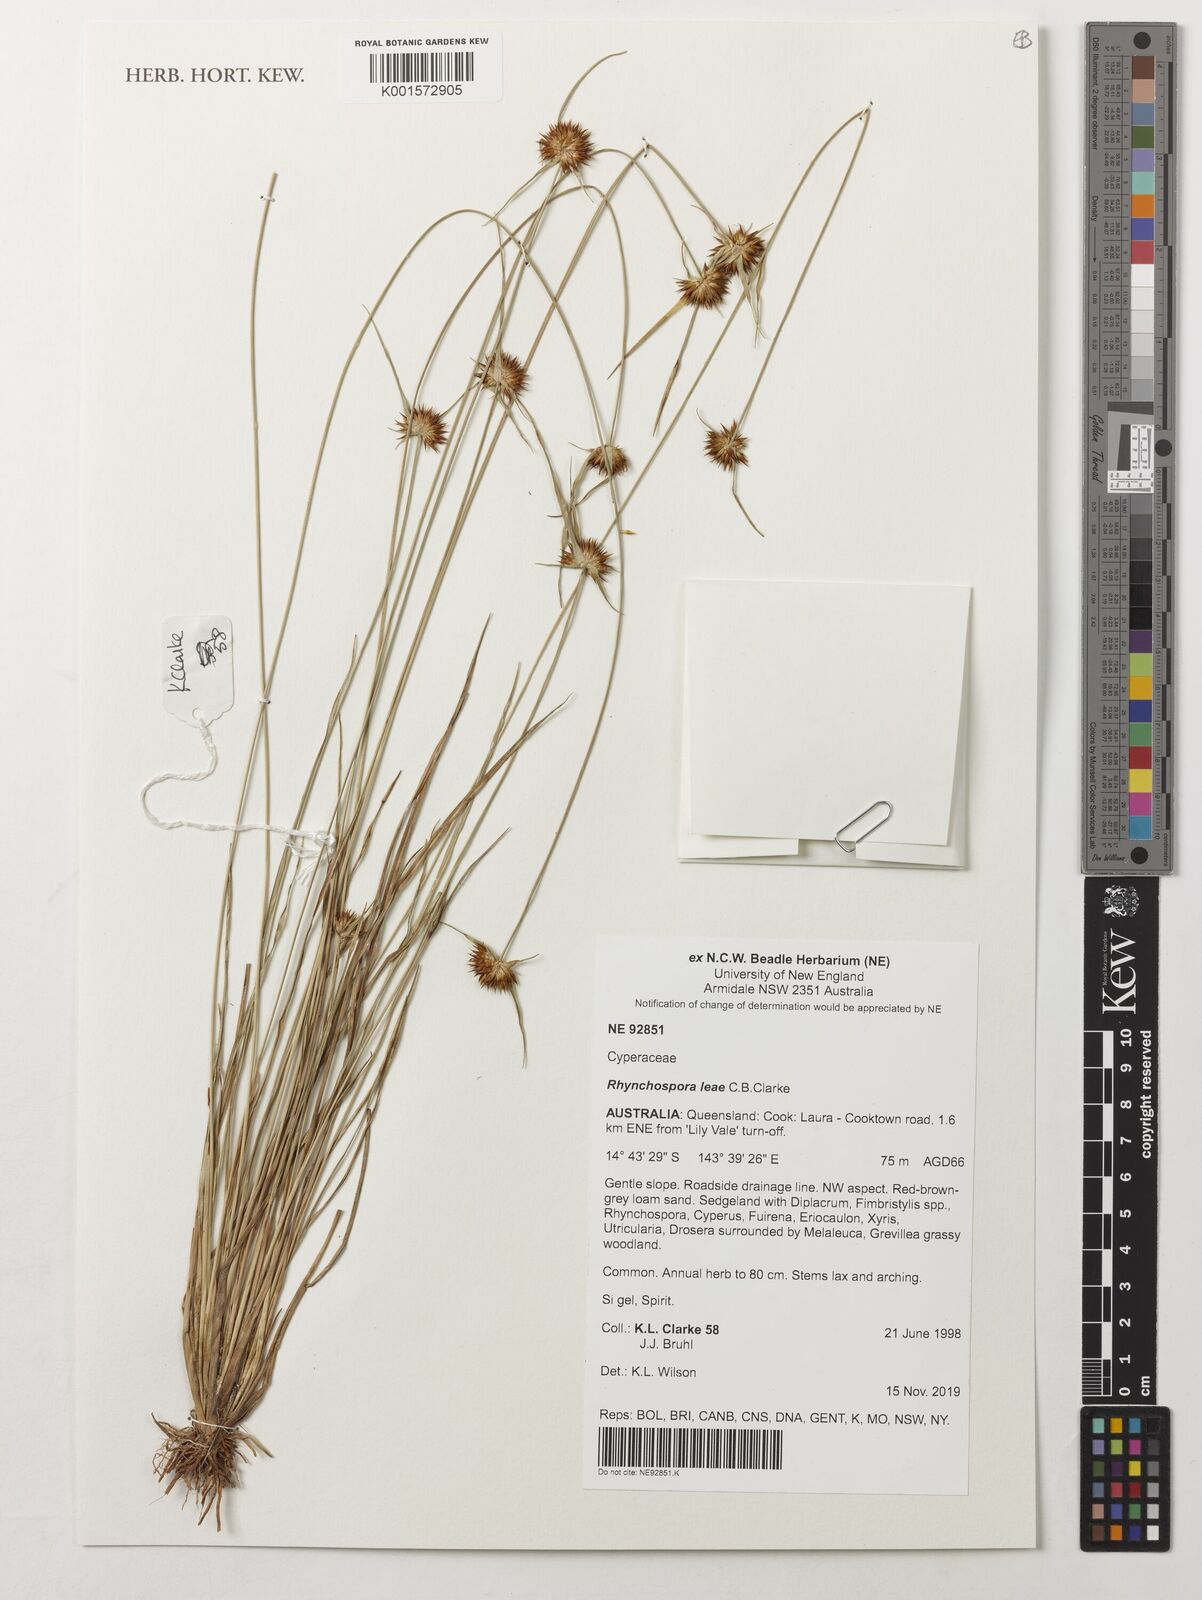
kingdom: Plantae
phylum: Tracheophyta
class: Liliopsida
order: Poales
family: Cyperaceae
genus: Rhynchospora
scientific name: Rhynchospora leae
